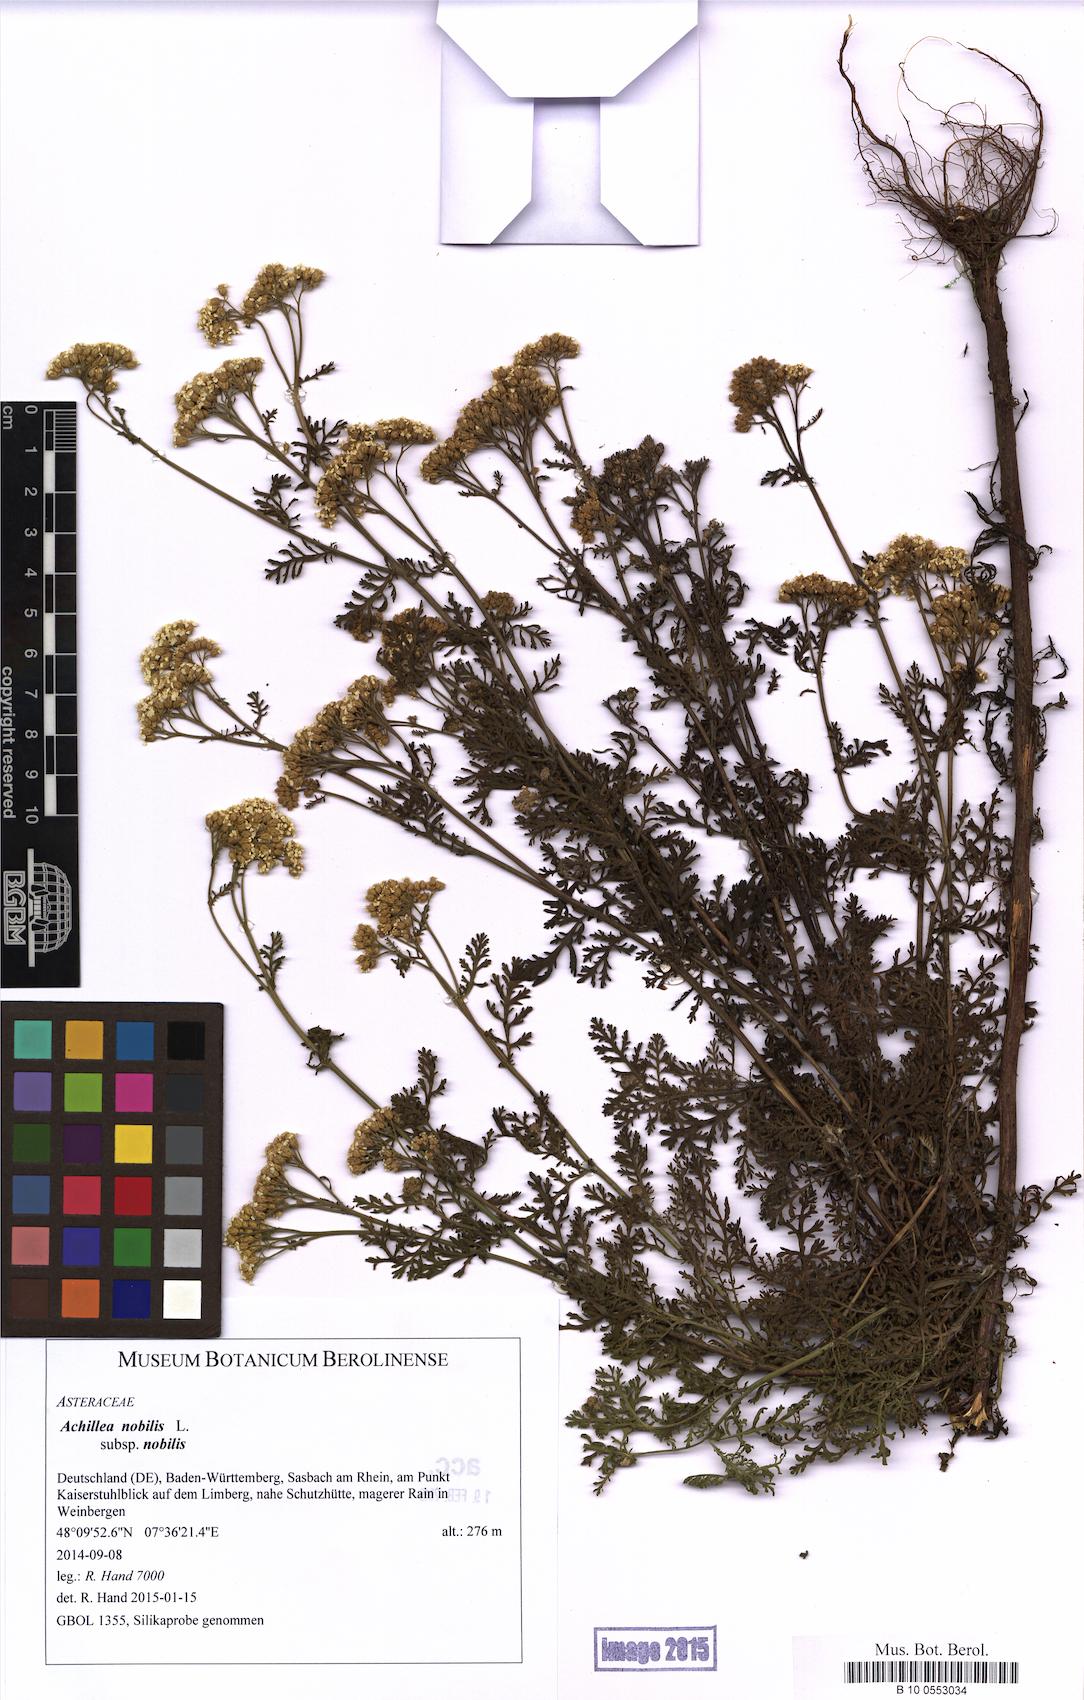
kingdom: Plantae
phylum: Tracheophyta
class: Magnoliopsida
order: Asterales
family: Asteraceae
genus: Achillea
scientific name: Achillea nobilis
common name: Noble yarrow
